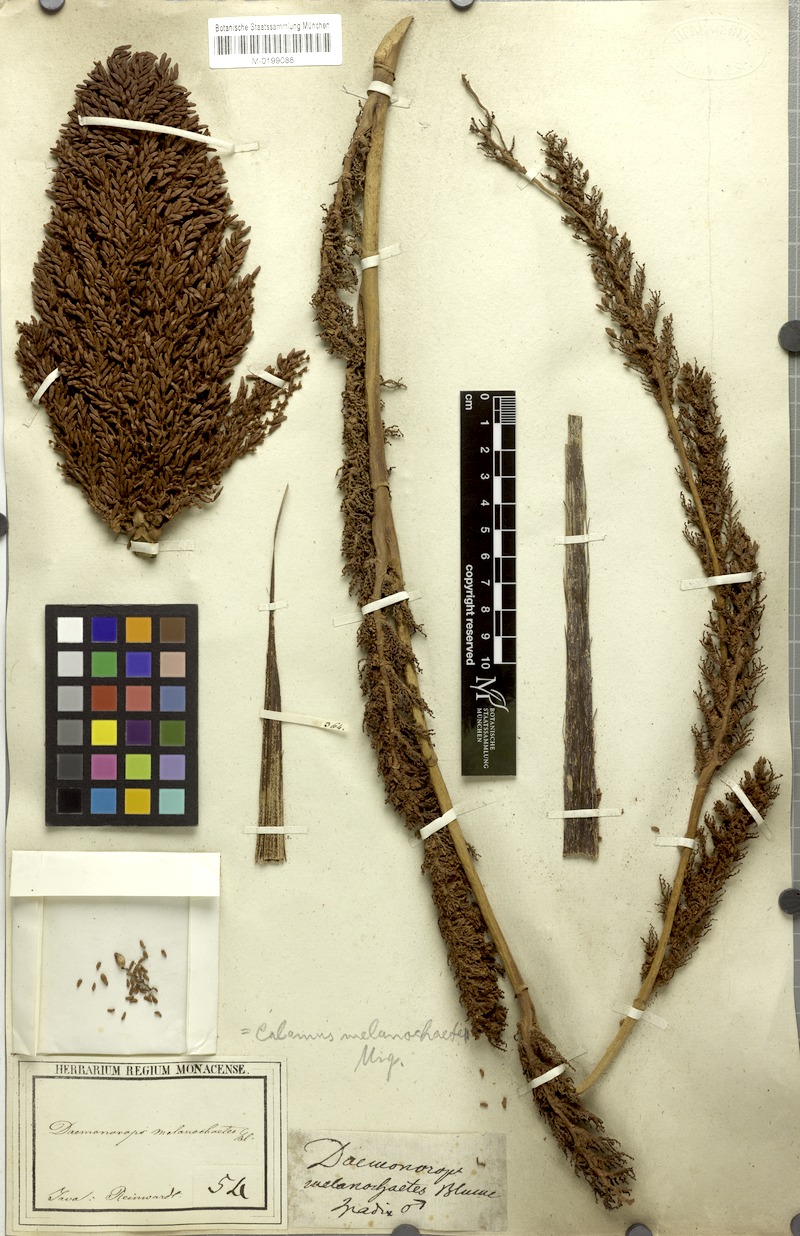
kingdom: Plantae
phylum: Tracheophyta
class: Liliopsida
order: Arecales
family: Arecaceae
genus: Calamus
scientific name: Calamus melanochaetes
